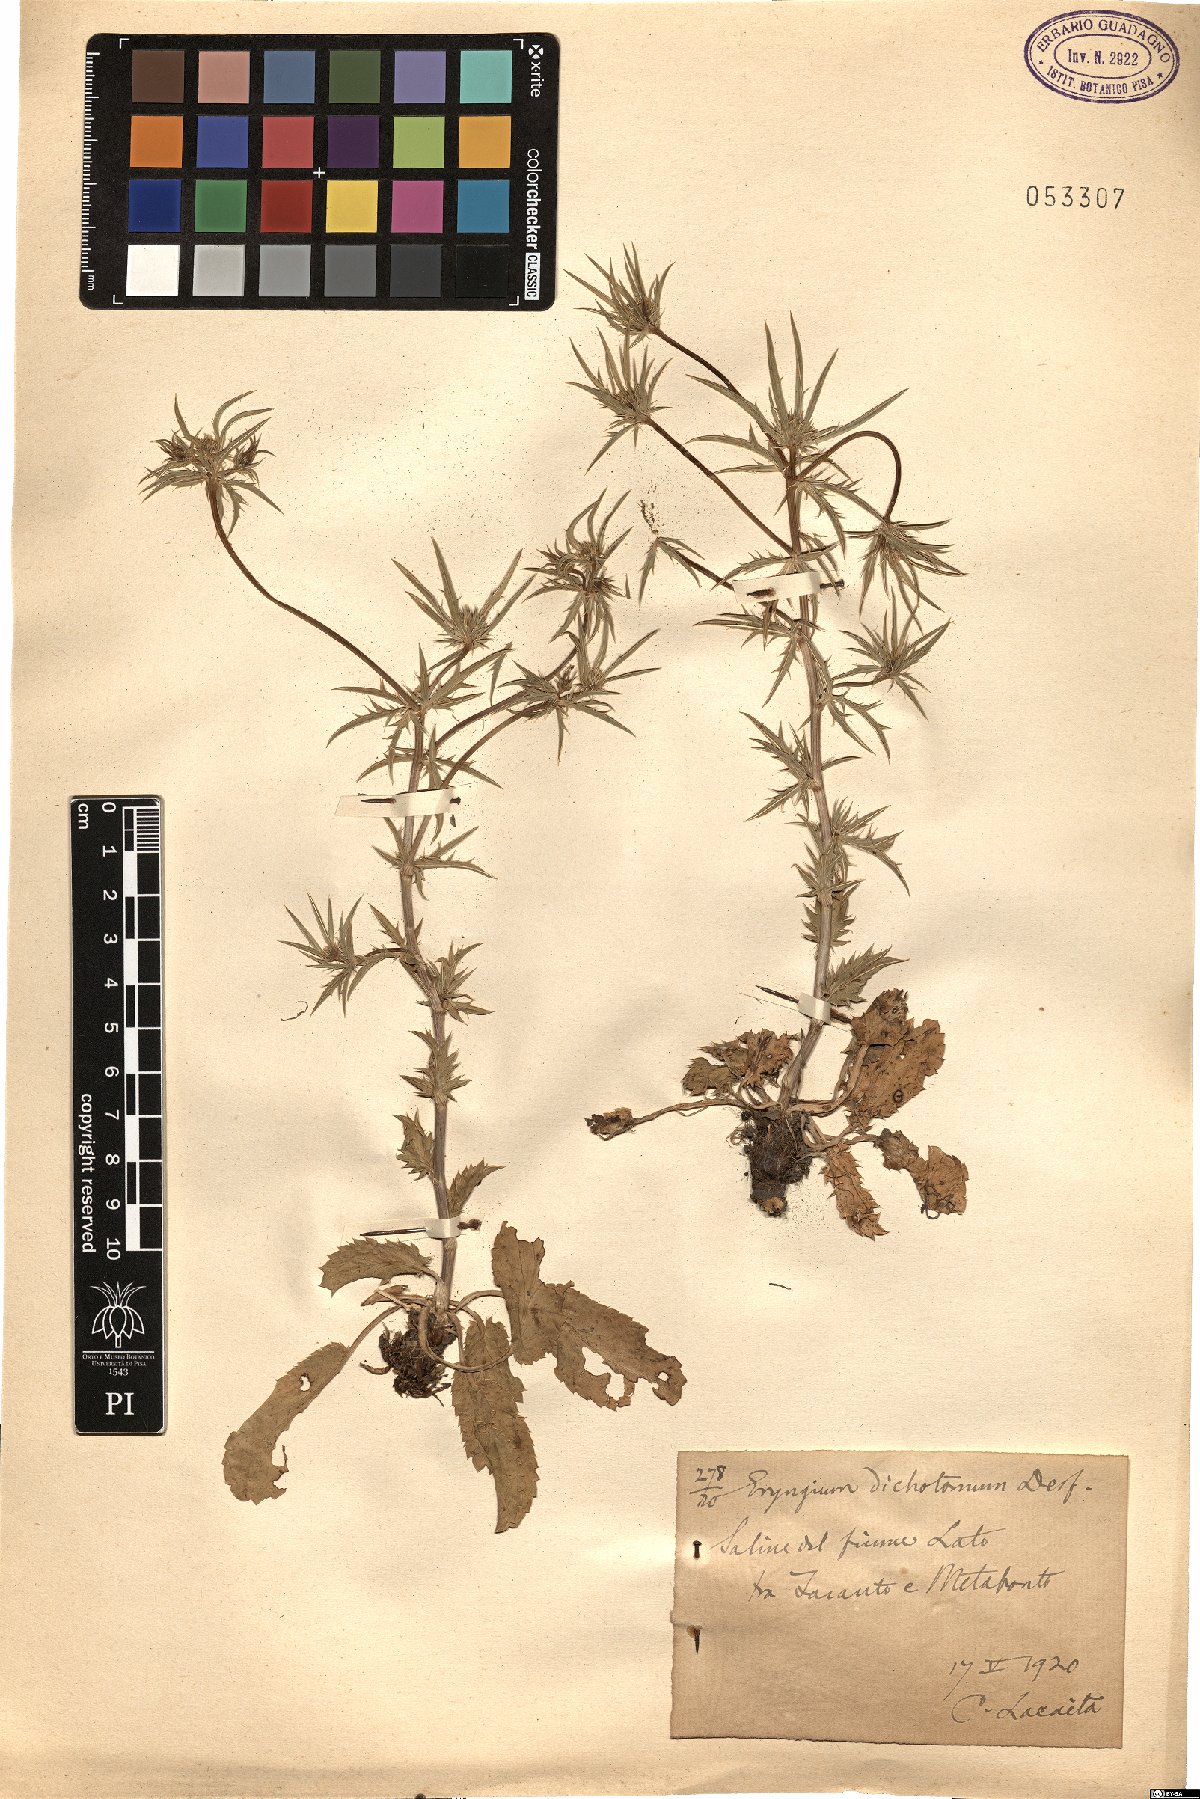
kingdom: Plantae
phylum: Tracheophyta
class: Magnoliopsida
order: Apiales
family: Apiaceae
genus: Eryngium
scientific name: Eryngium dichotomum
